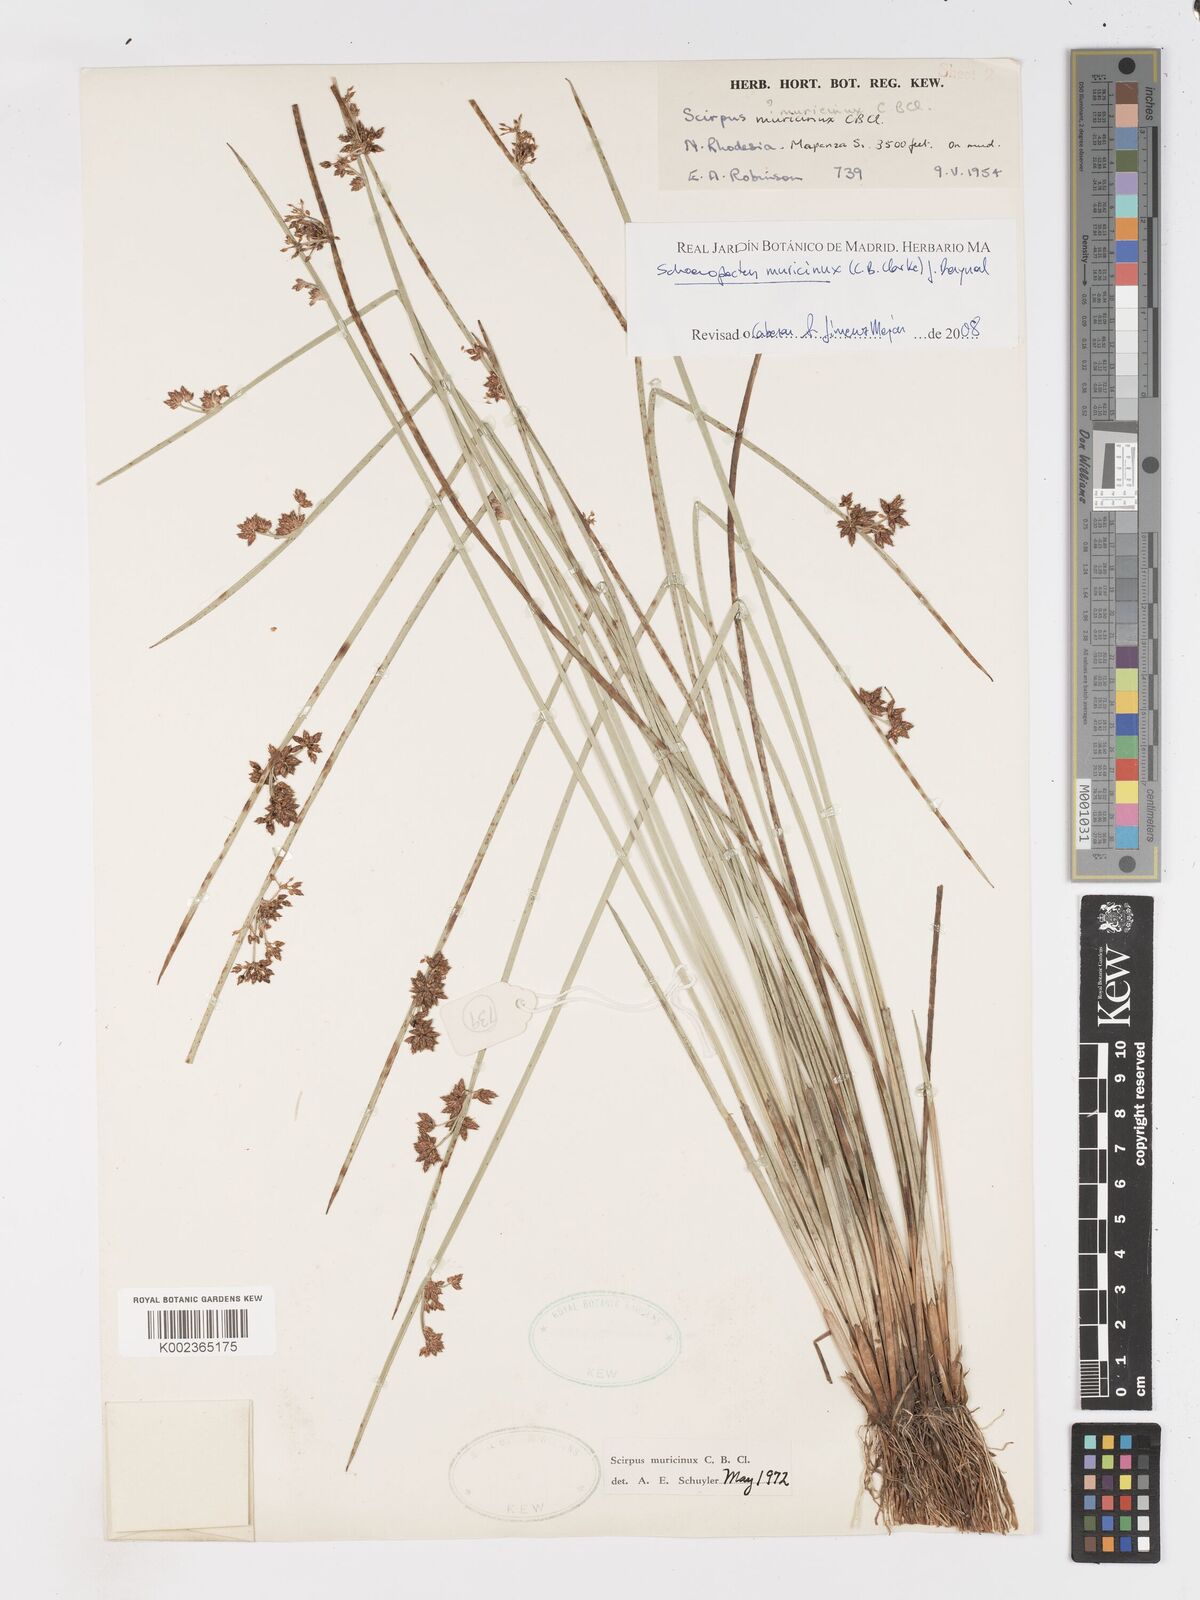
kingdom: Plantae
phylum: Tracheophyta
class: Liliopsida
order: Poales
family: Cyperaceae
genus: Schoenoplectiella
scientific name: Schoenoplectiella muricinux
